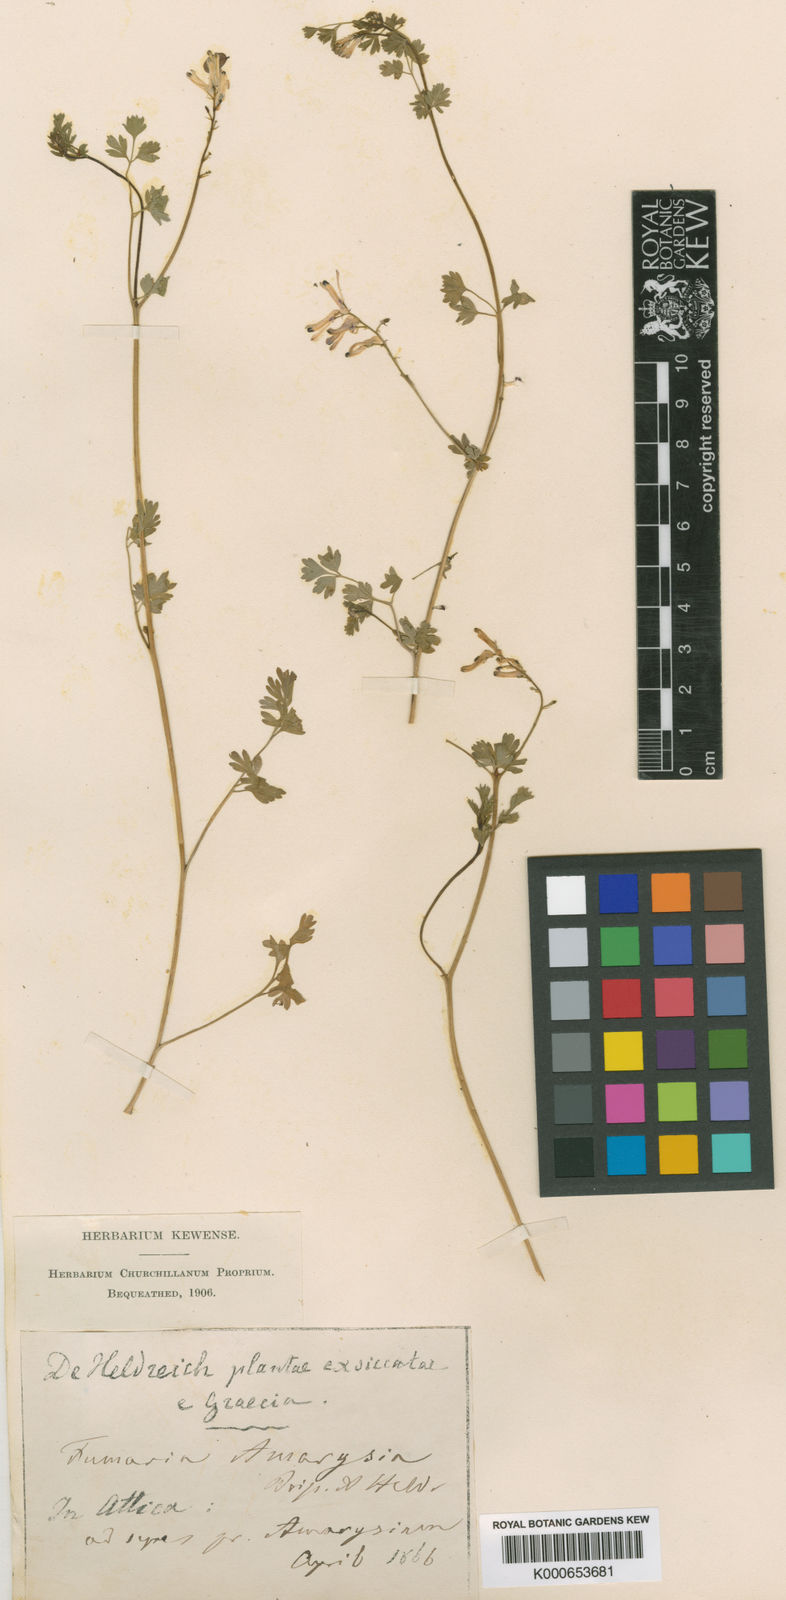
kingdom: Plantae
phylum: Tracheophyta
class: Magnoliopsida
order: Ranunculales
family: Papaveraceae
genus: Fumaria
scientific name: Fumaria judaica
